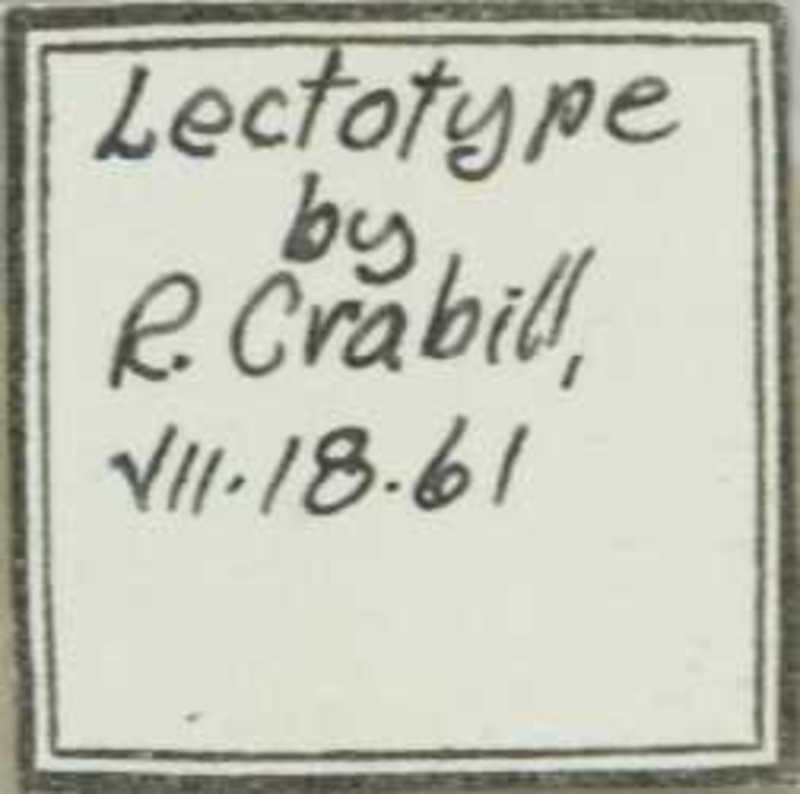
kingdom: Animalia
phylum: Arthropoda
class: Chilopoda
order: Geophilomorpha
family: Geophilidae
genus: Geoperingueyia
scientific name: Geoperingueyia dentata
